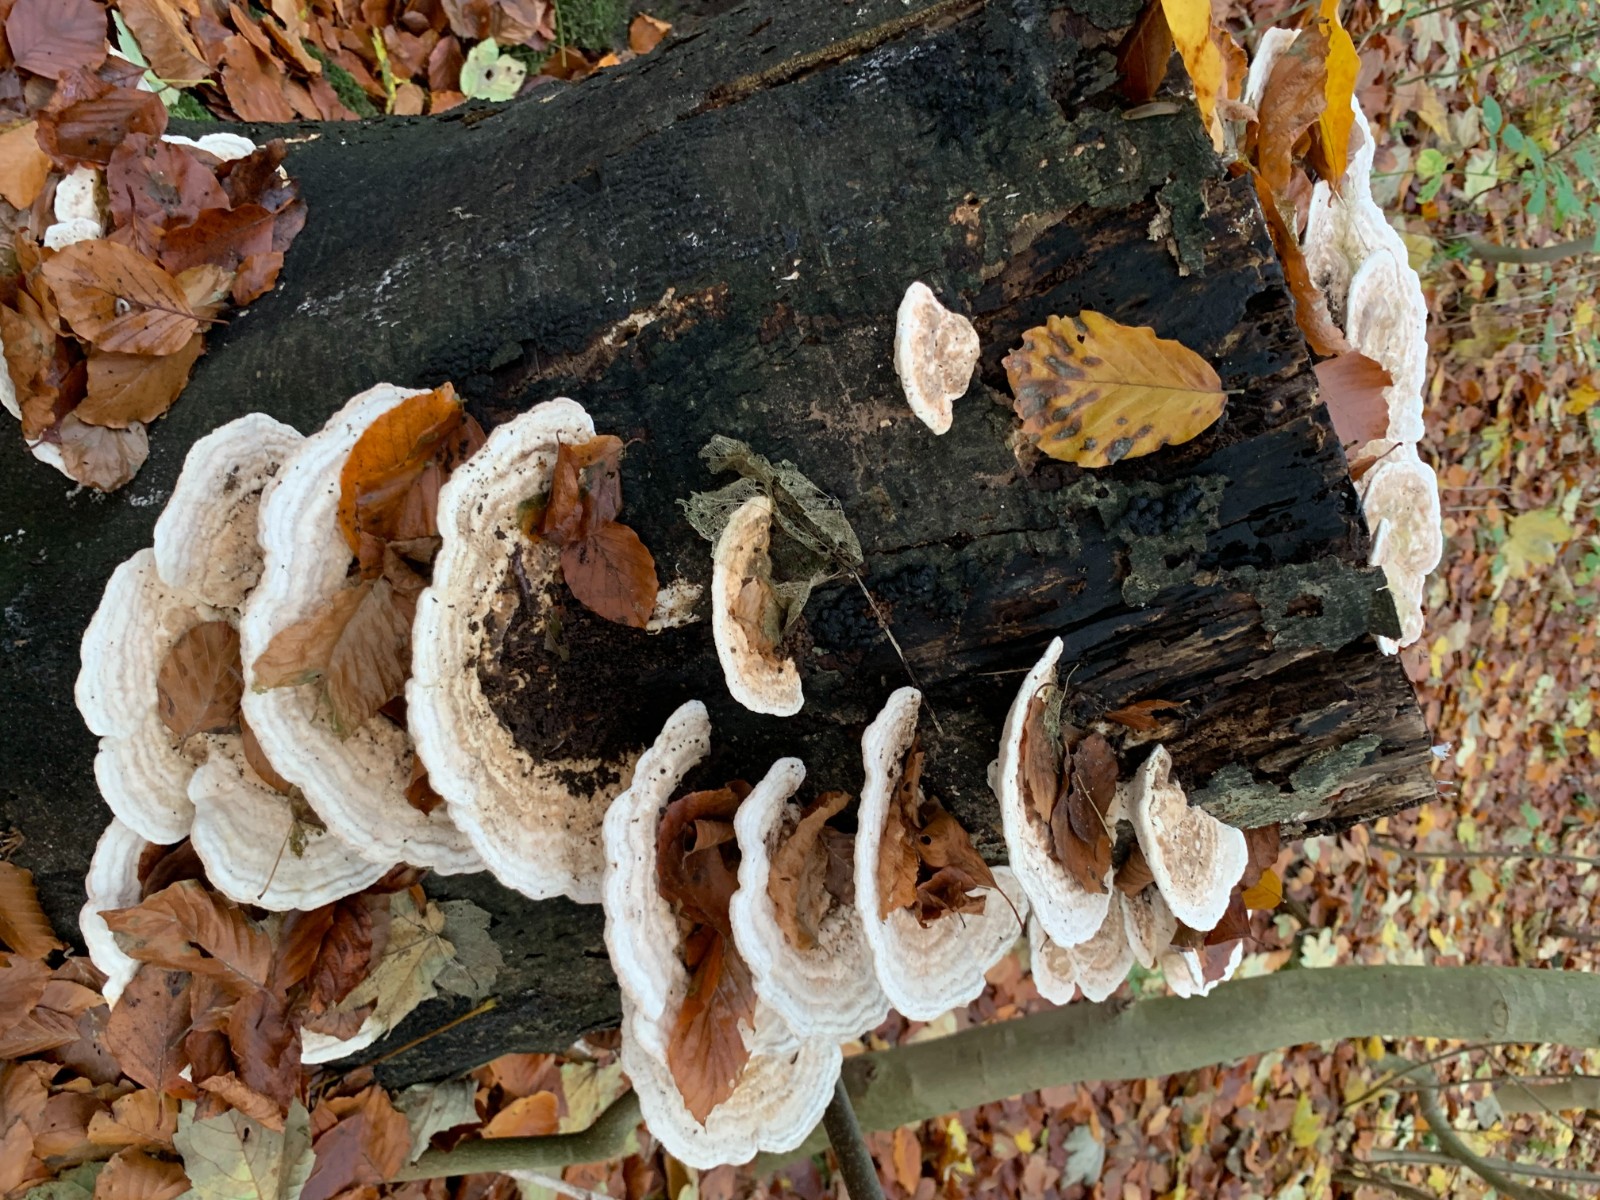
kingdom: Fungi
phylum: Basidiomycota
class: Agaricomycetes
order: Polyporales
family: Polyporaceae
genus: Trametes
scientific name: Trametes gibbosa
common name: puklet læderporesvamp
